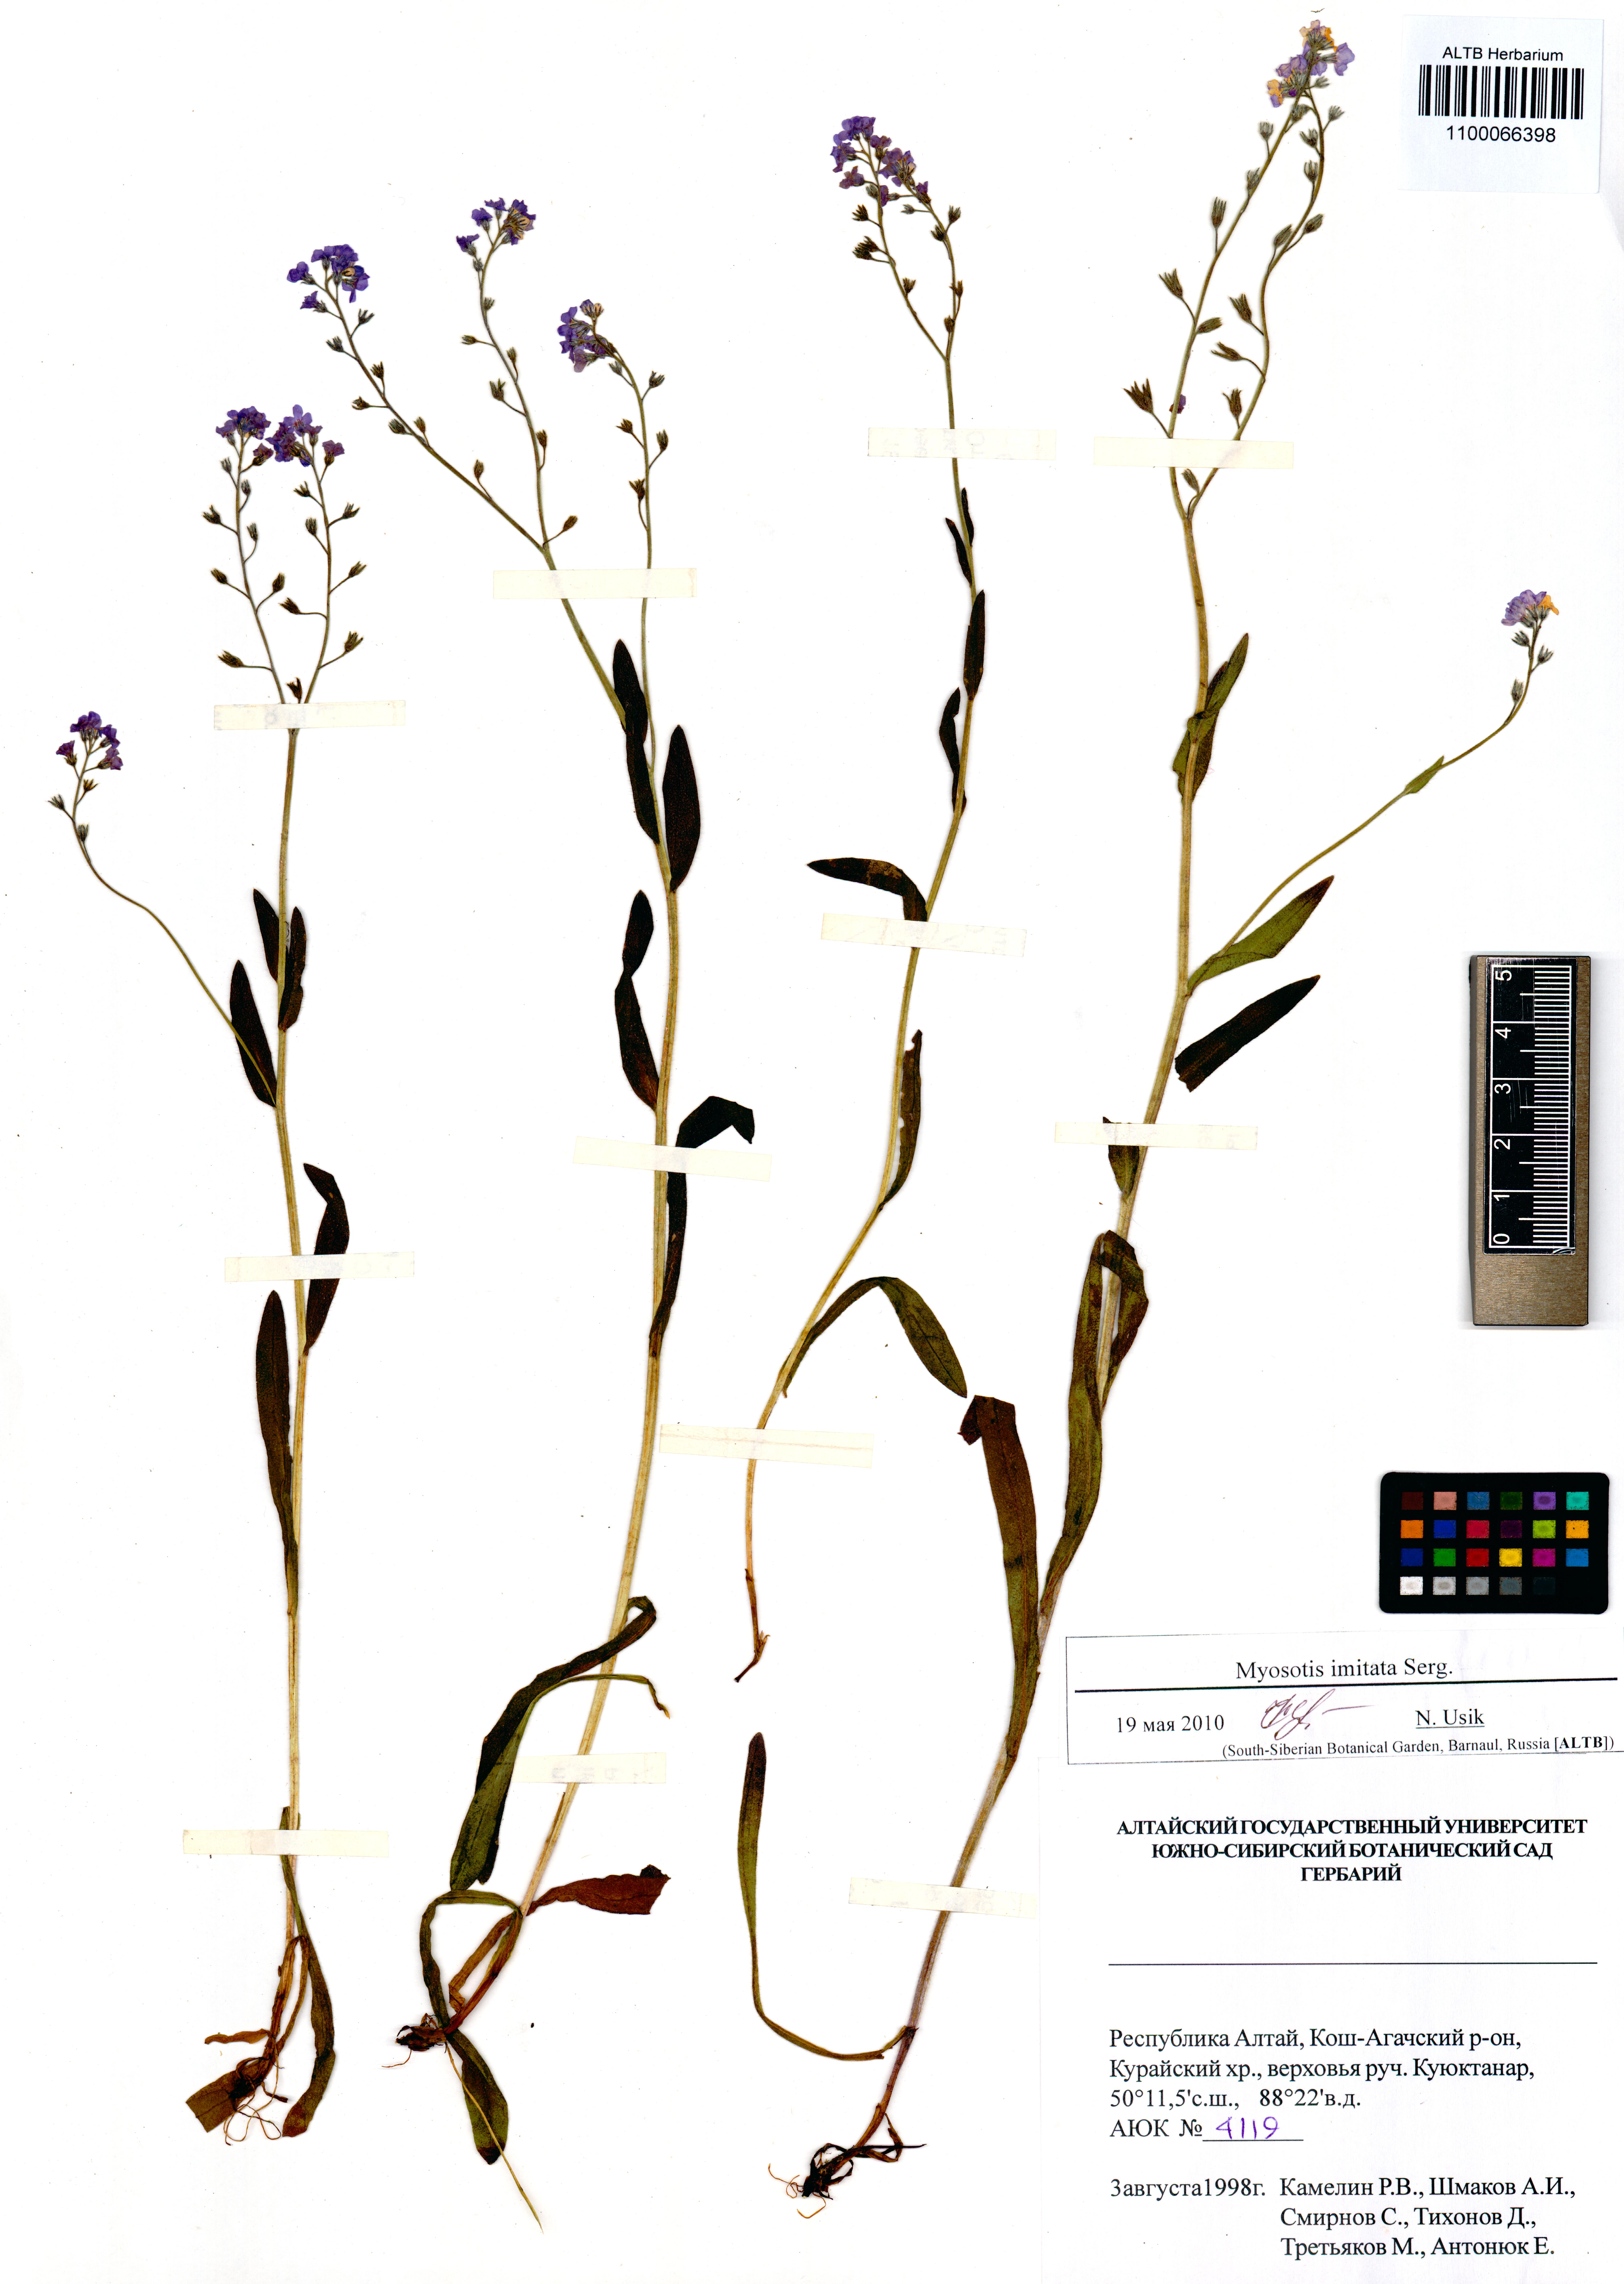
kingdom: Plantae
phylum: Tracheophyta
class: Magnoliopsida
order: Boraginales
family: Boraginaceae
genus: Myosotis
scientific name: Myosotis imitata
